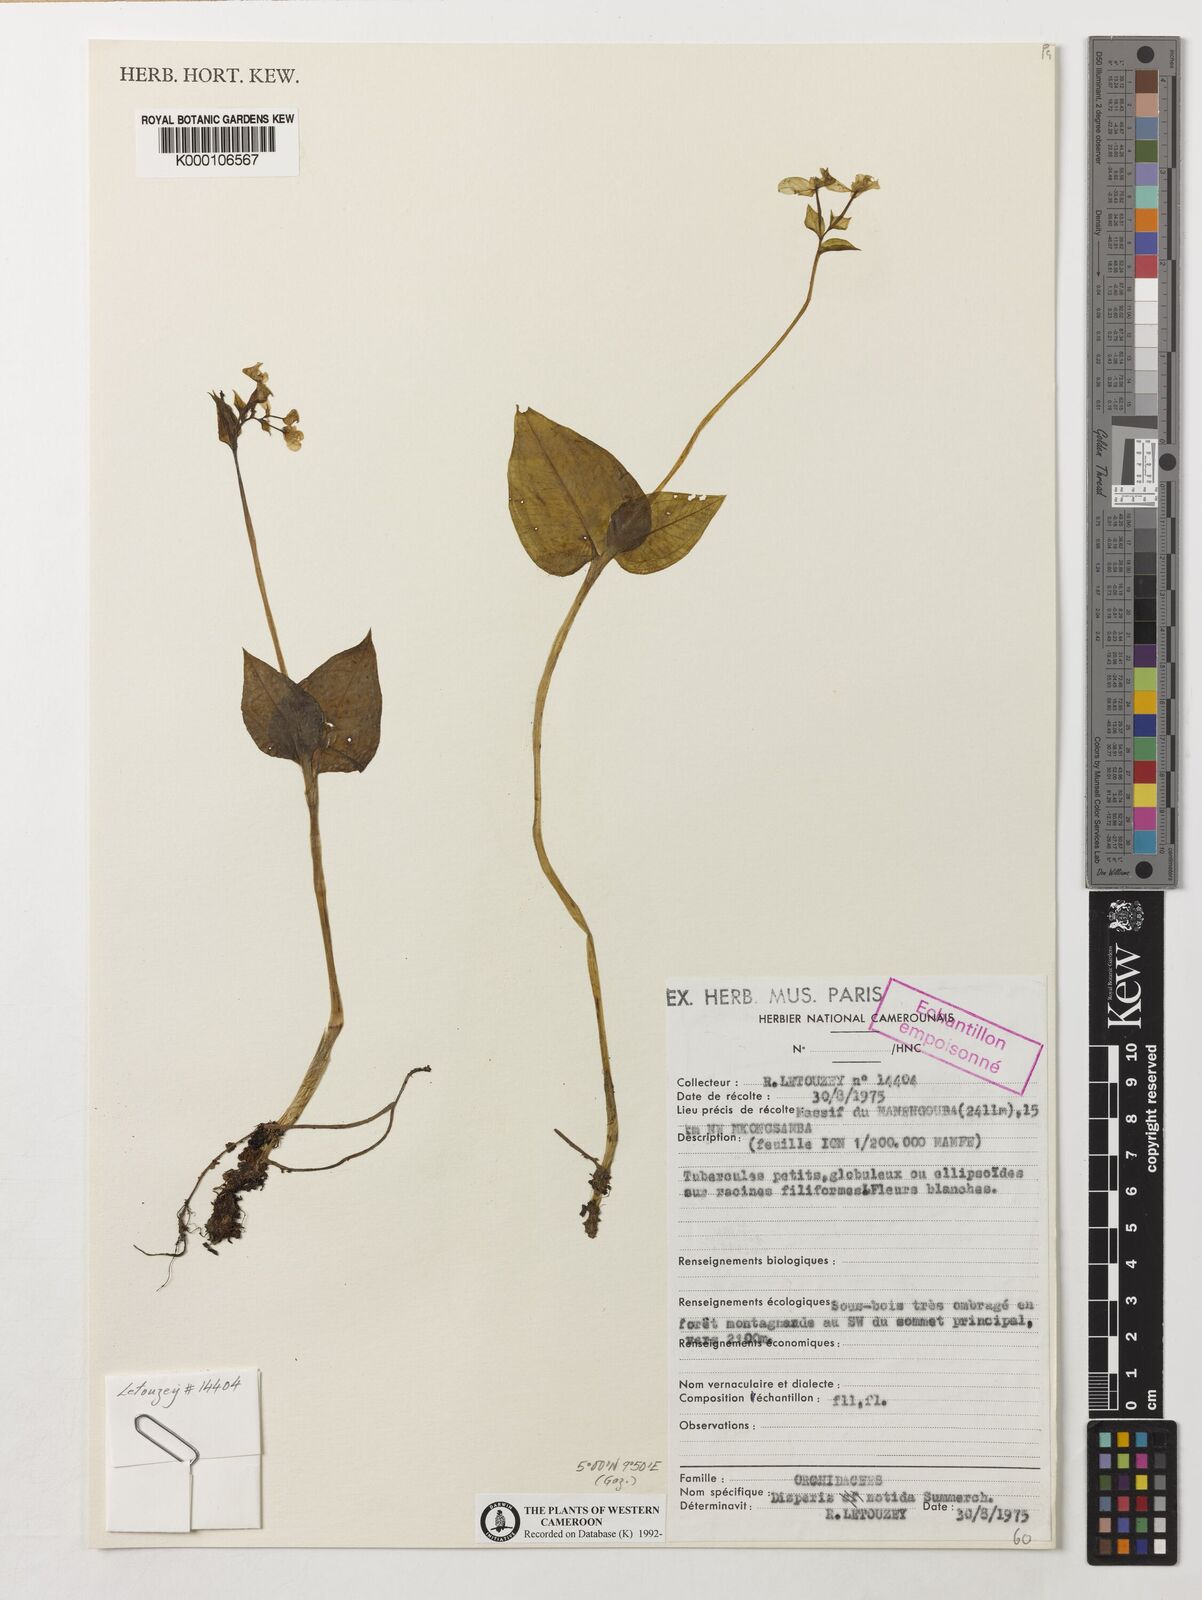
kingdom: Plantae
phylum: Tracheophyta
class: Liliopsida
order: Asparagales
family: Orchidaceae
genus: Disperis
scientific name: Disperis nitida
